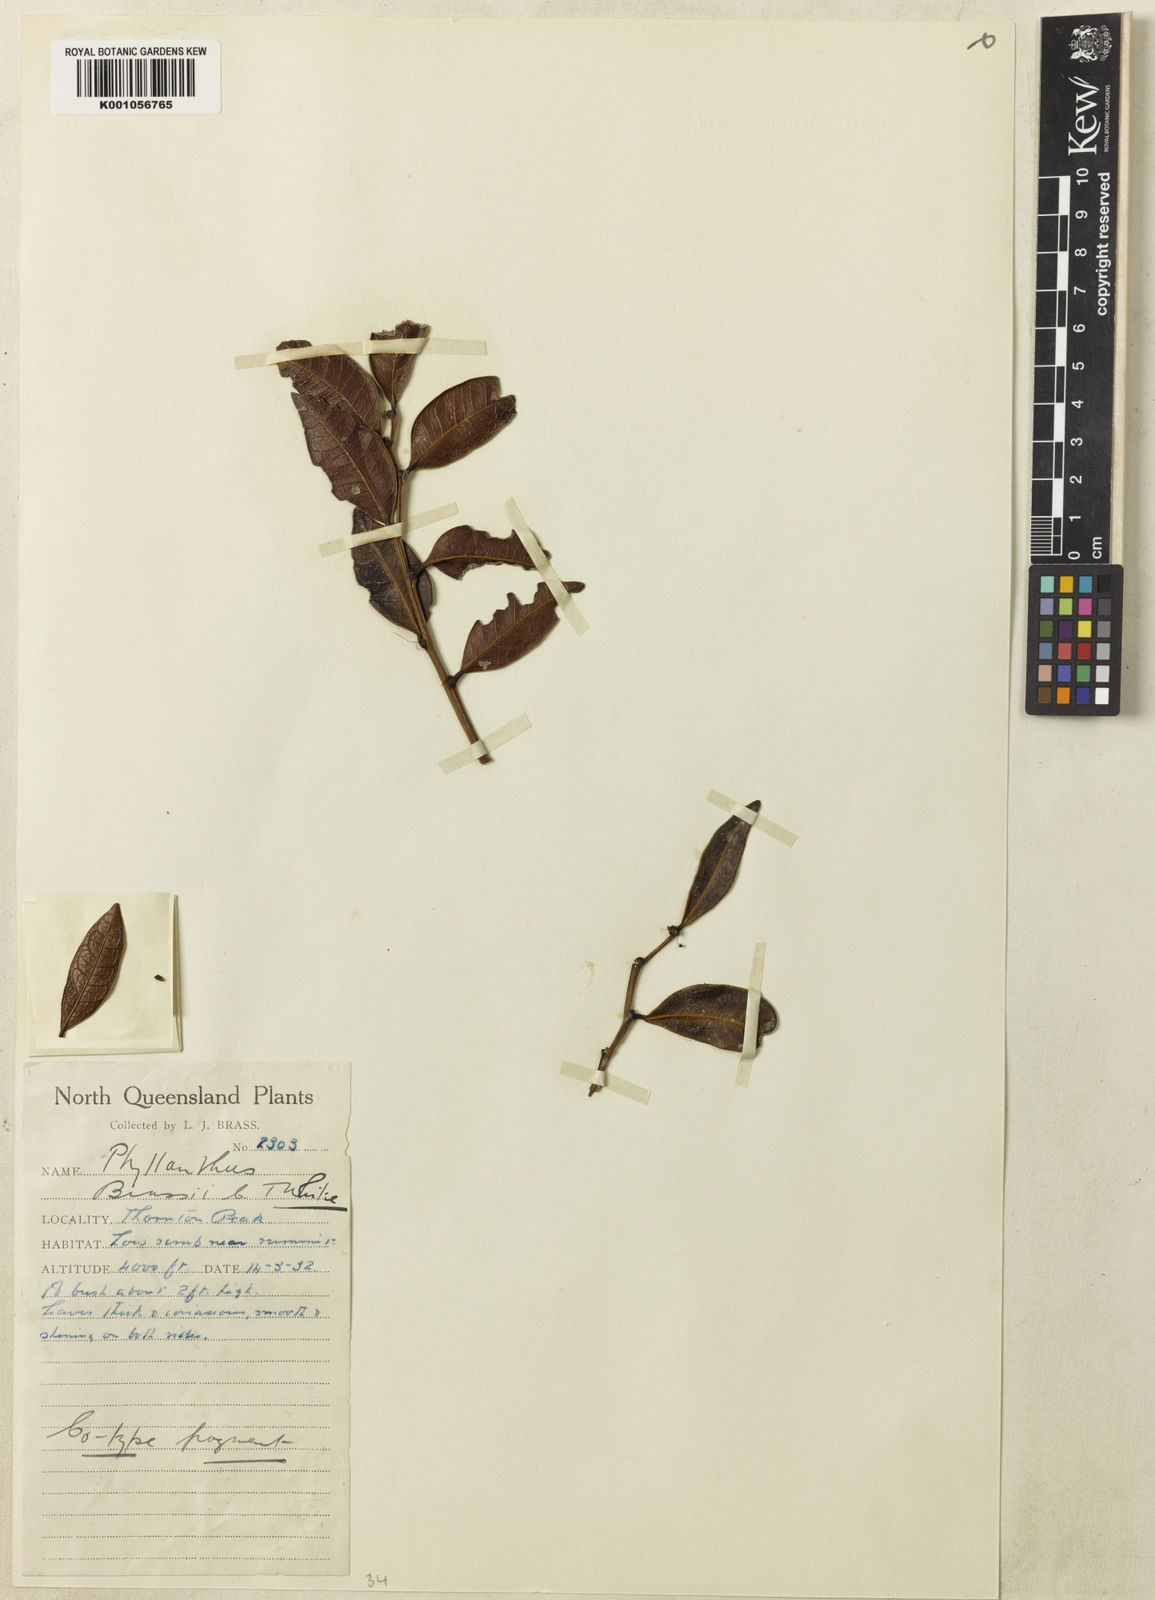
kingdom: Plantae
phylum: Tracheophyta
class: Magnoliopsida
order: Malpighiales
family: Phyllanthaceae
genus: Phyllanthus
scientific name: Phyllanthus brassii
